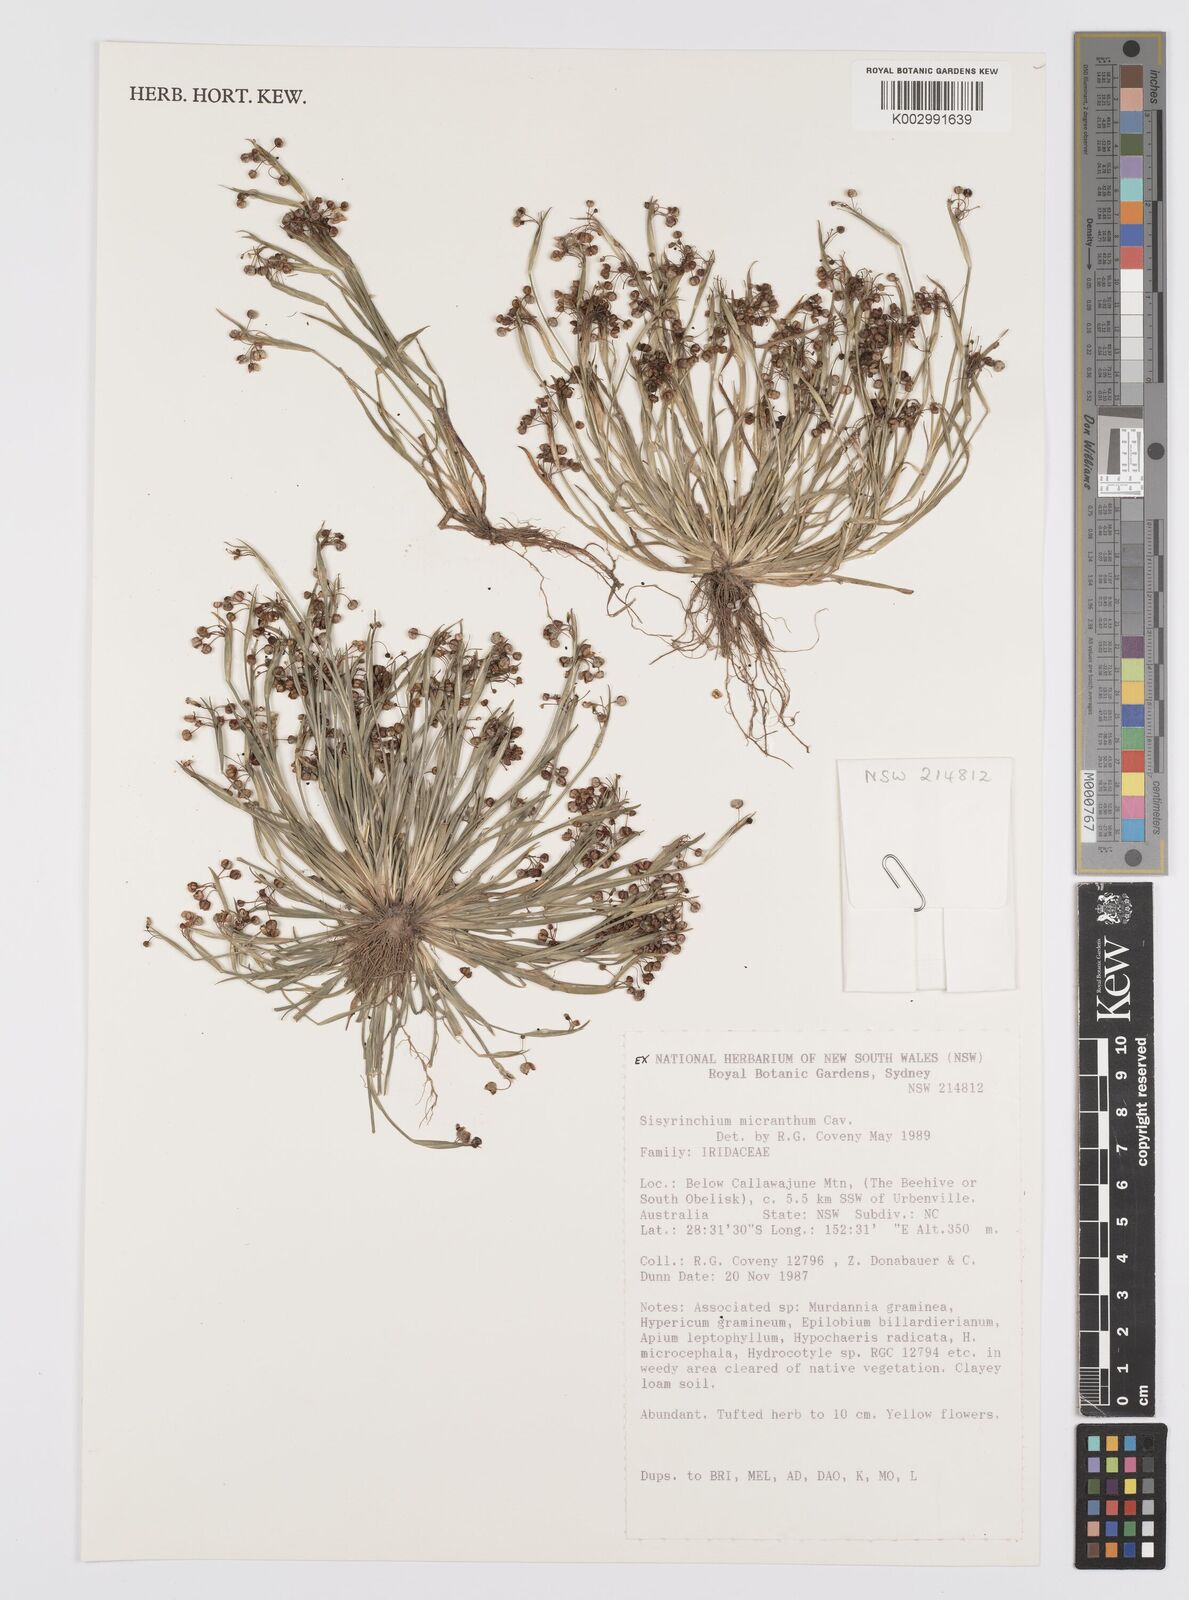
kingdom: Plantae
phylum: Tracheophyta
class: Liliopsida
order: Asparagales
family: Iridaceae
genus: Sisyrinchium
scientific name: Sisyrinchium micranthum
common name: Bermuda pigroot
